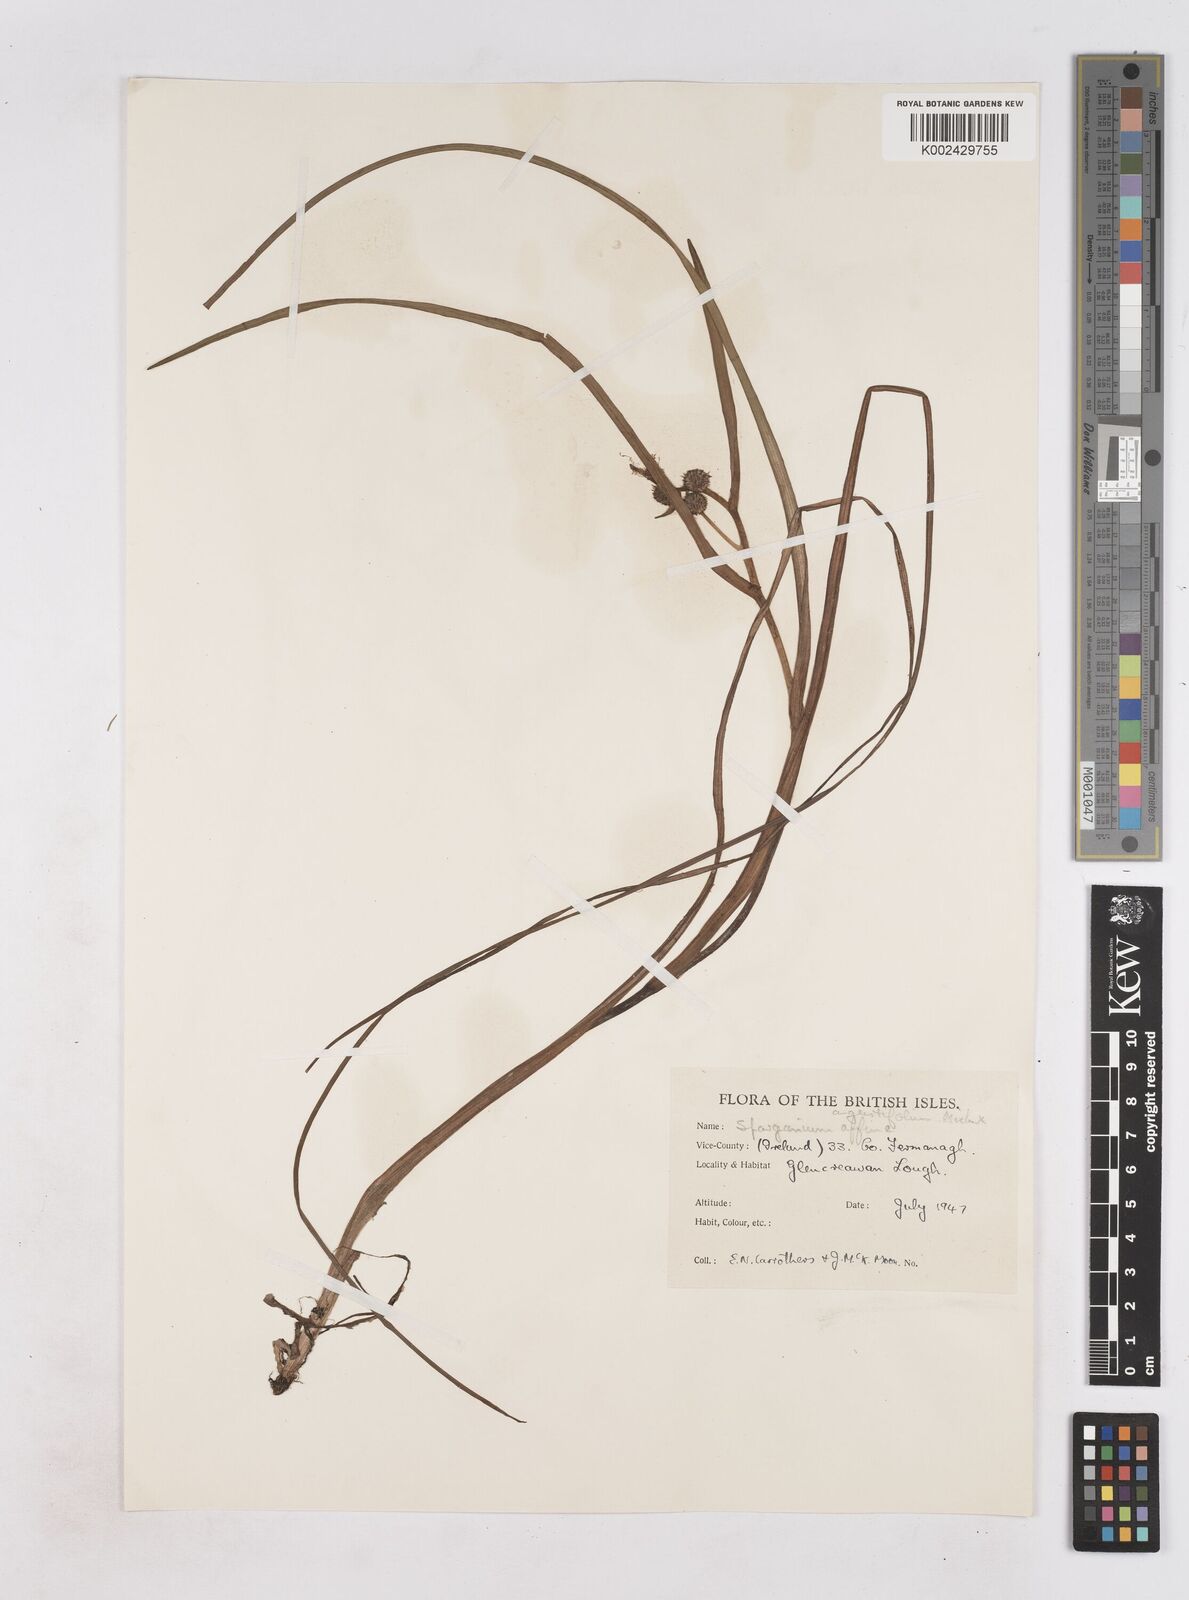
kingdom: Plantae
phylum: Tracheophyta
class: Liliopsida
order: Poales
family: Typhaceae
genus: Sparganium
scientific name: Sparganium angustifolium
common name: Floating bur-reed
